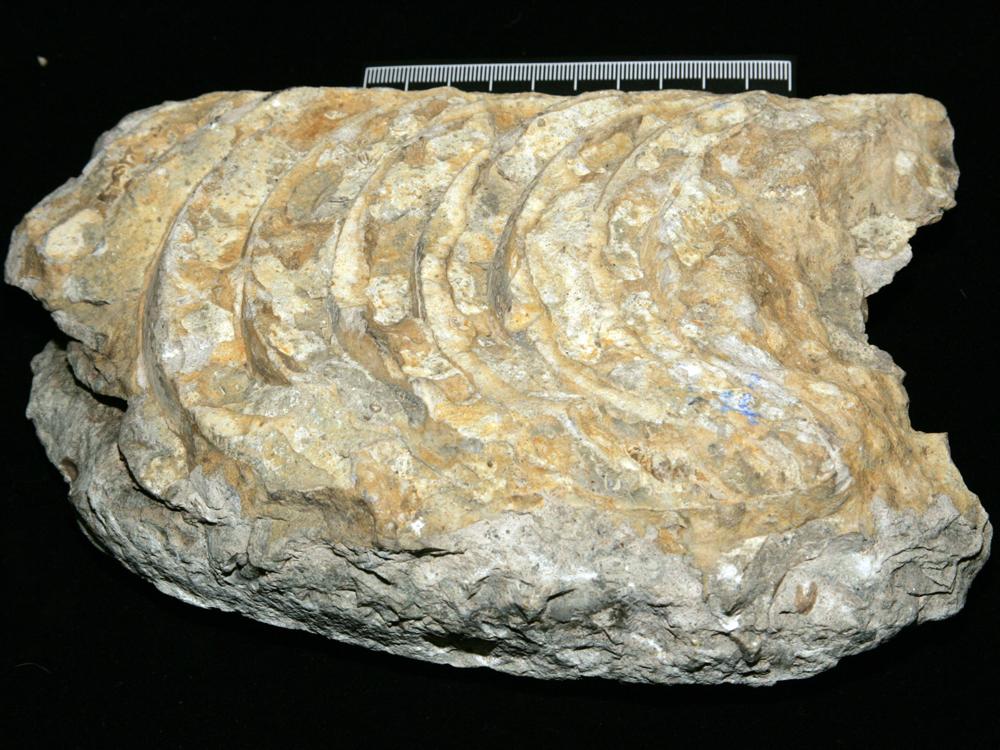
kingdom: Animalia
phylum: Mollusca
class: Cephalopoda
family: Endoceratidae
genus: Endoceras
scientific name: Endoceras
